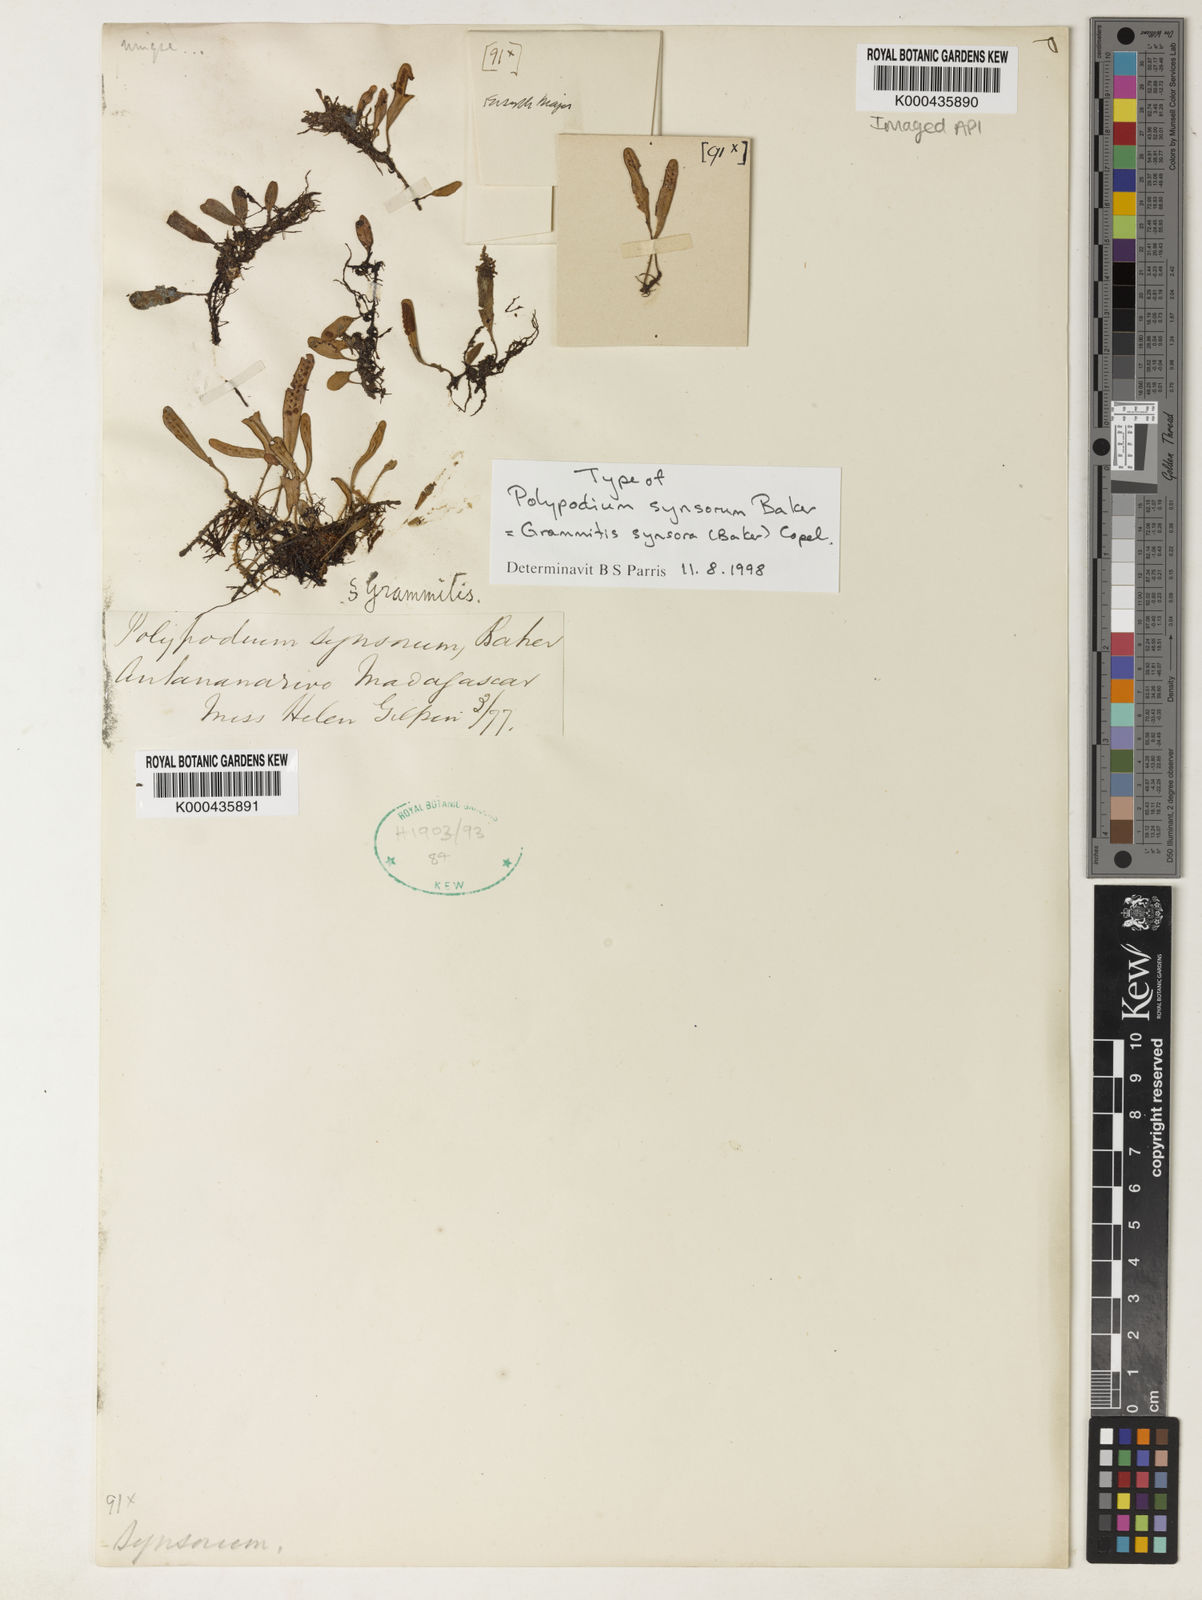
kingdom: Plantae
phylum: Tracheophyta
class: Polypodiopsida
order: Polypodiales
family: Polypodiaceae
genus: Grammitis
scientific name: Grammitis synsora
